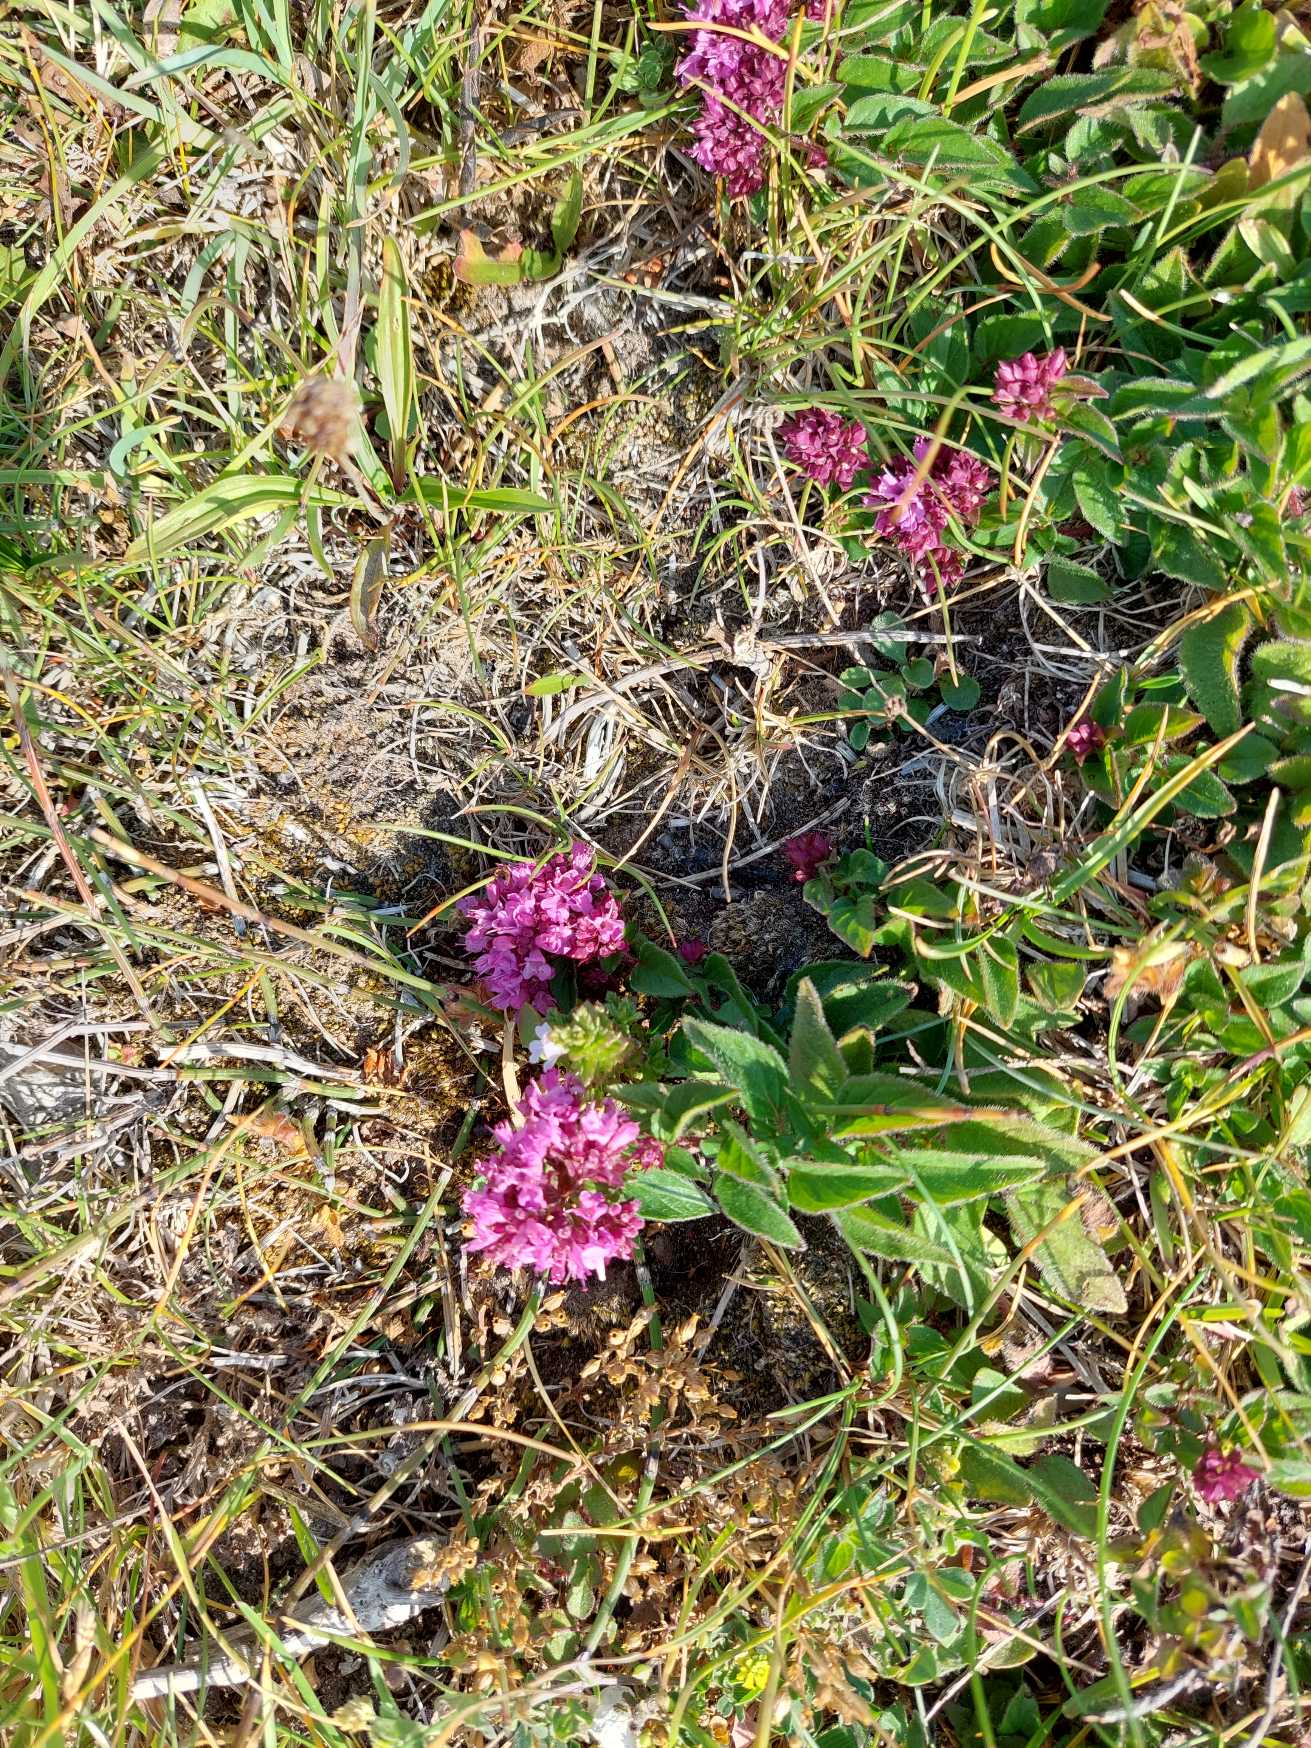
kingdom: Plantae
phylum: Tracheophyta
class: Magnoliopsida
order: Lamiales
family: Lamiaceae
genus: Origanum
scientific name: Origanum vulgare
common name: Merian
